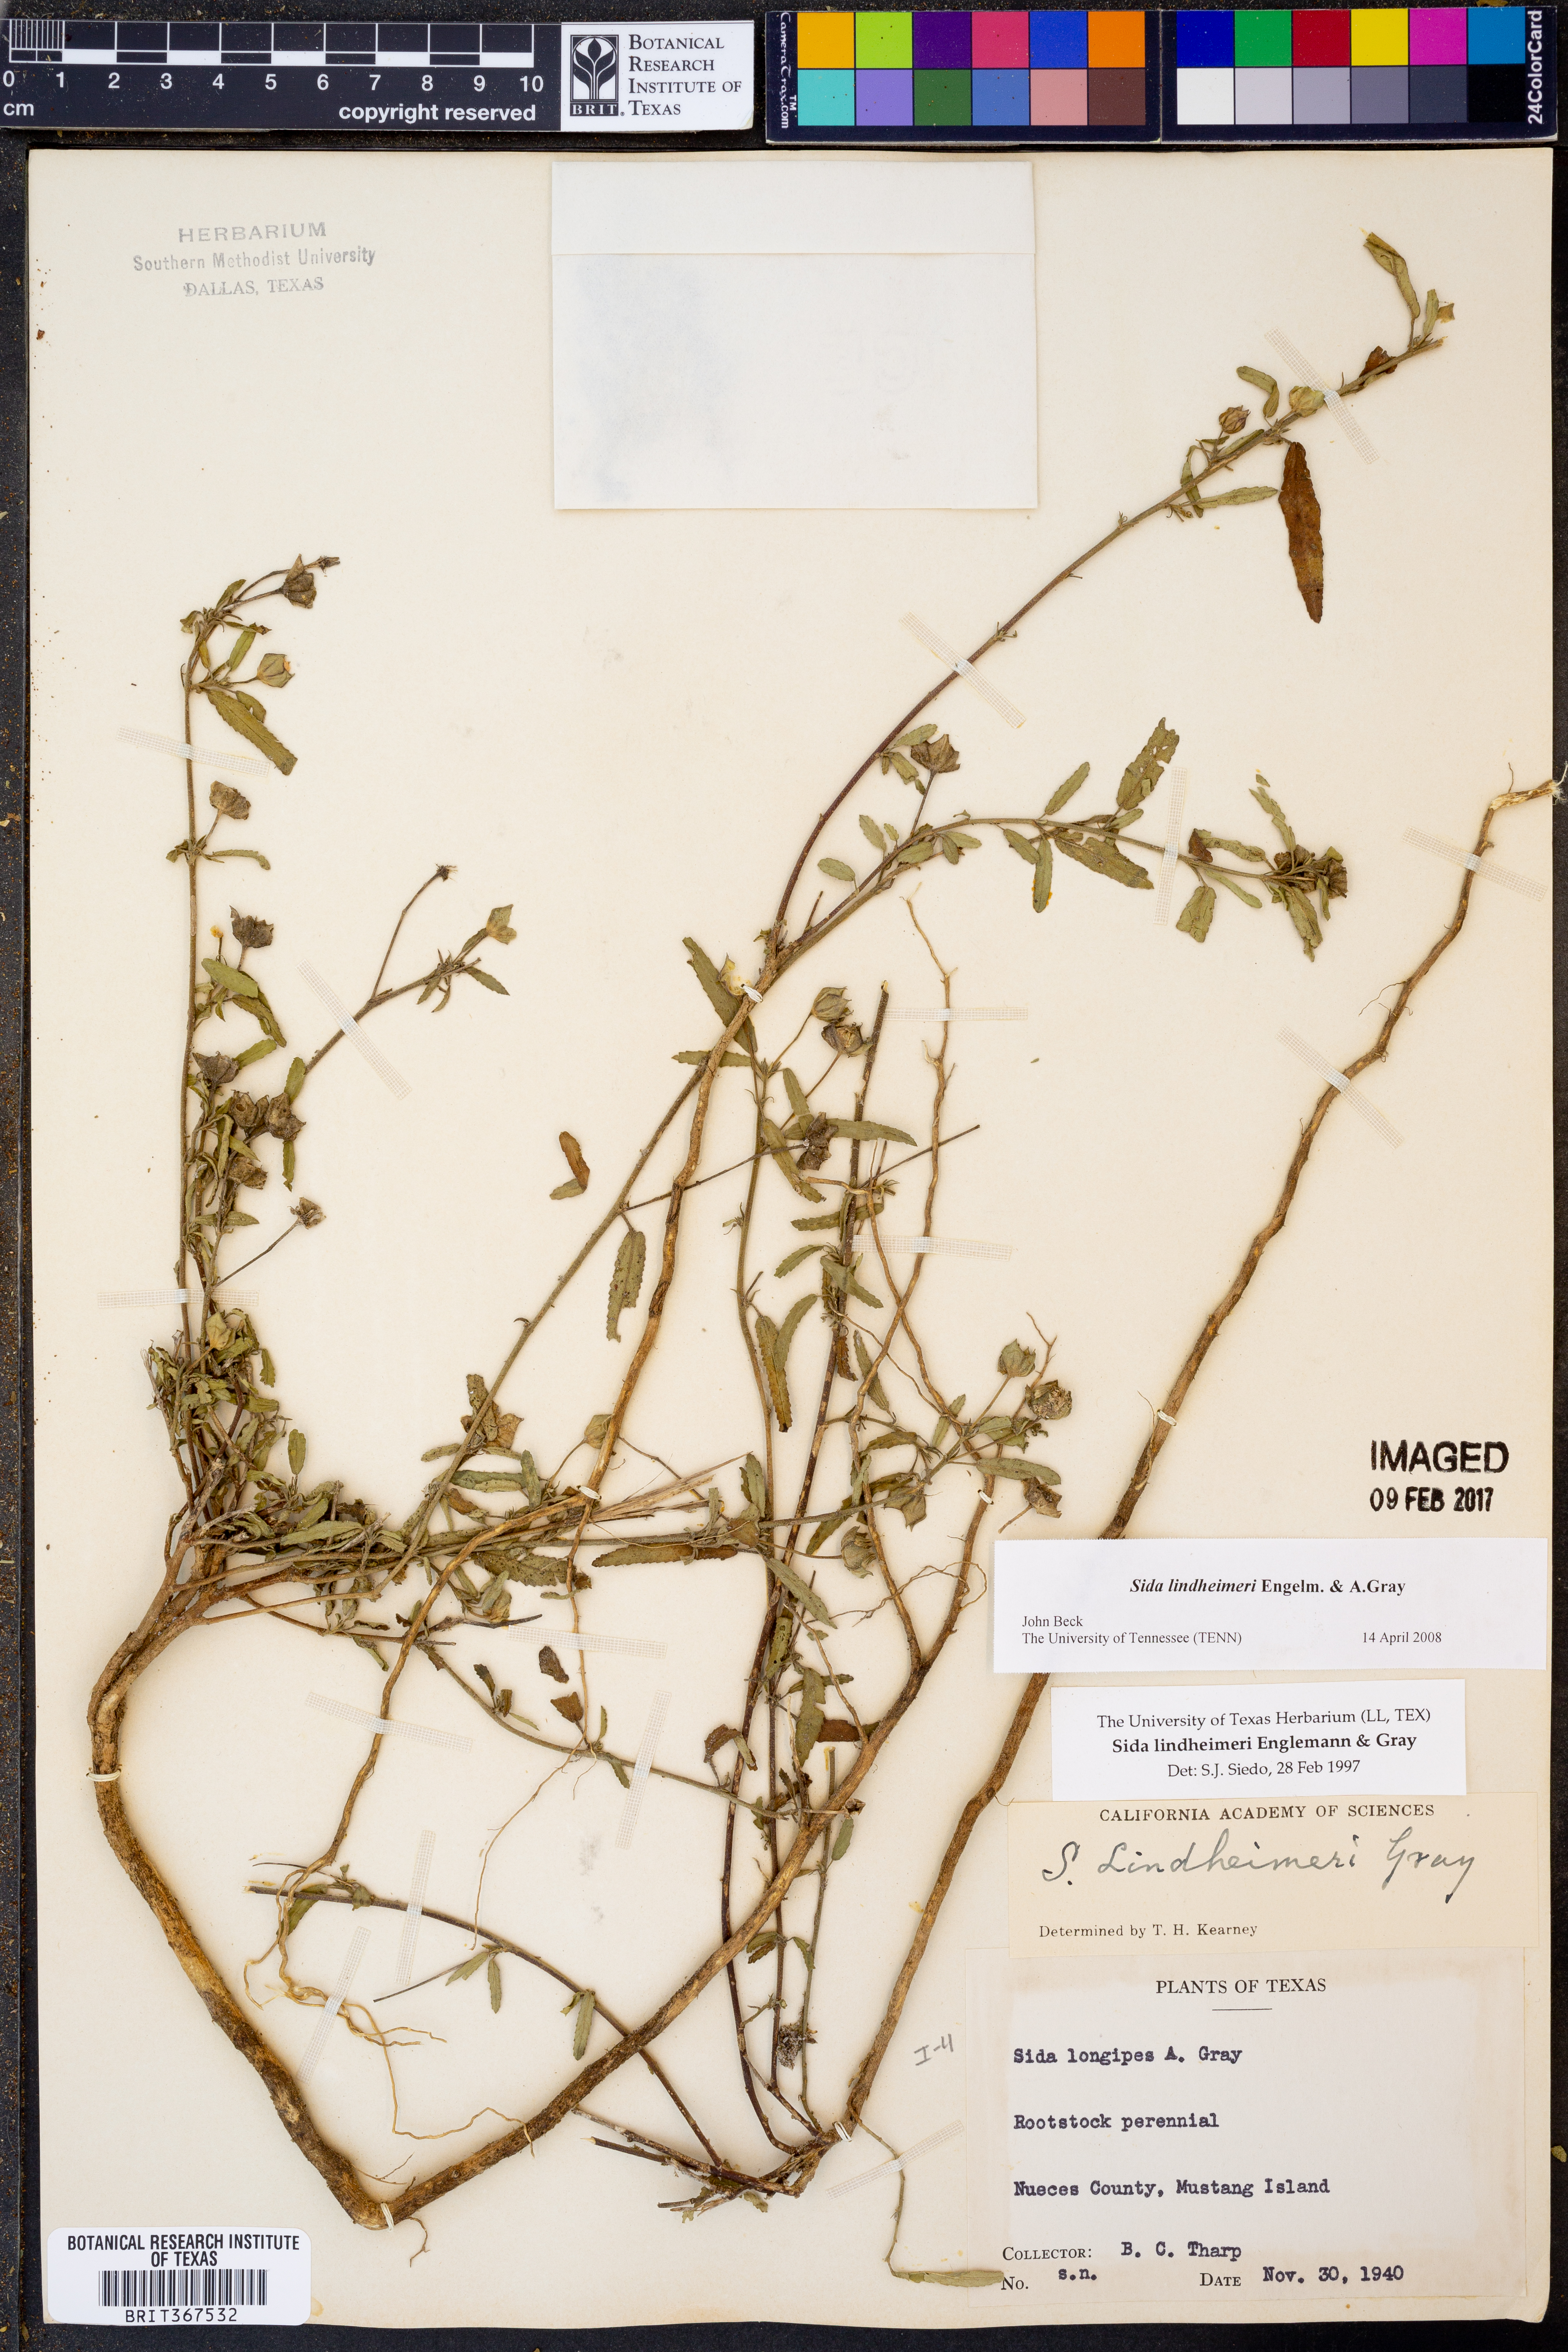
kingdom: Plantae
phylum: Tracheophyta
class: Magnoliopsida
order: Malvales
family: Malvaceae
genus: Sida
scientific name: Sida lindheimeri
